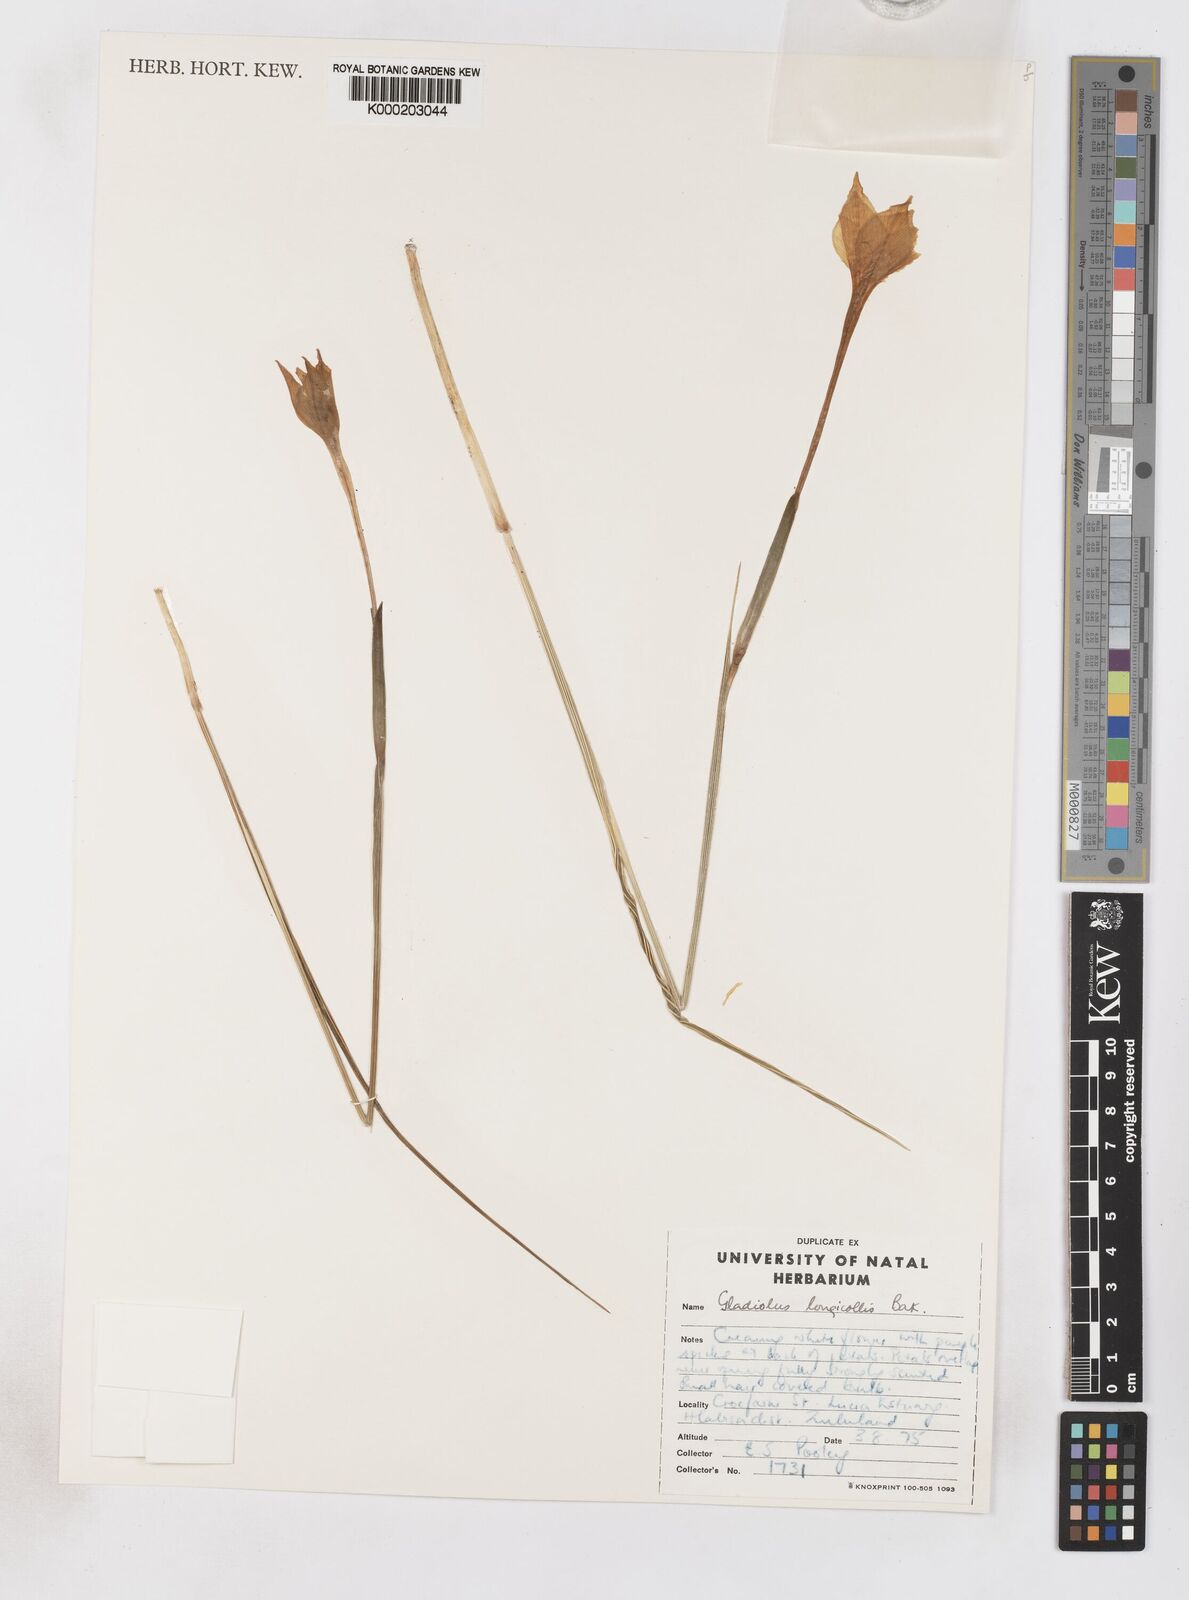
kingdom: Plantae
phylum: Tracheophyta
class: Liliopsida
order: Asparagales
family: Iridaceae
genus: Gladiolus
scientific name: Gladiolus longicollis
